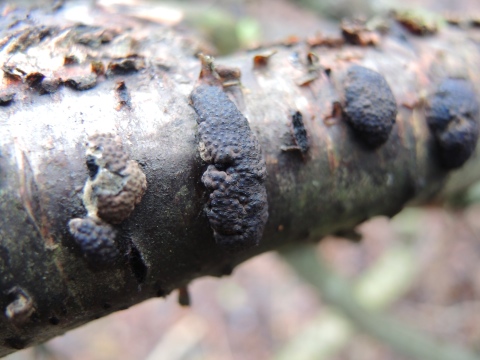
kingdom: Fungi
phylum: Ascomycota
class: Sordariomycetes
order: Xylariales
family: Hypoxylaceae
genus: Jackrogersella
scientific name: Jackrogersella multiformis
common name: foranderlig kulbær
